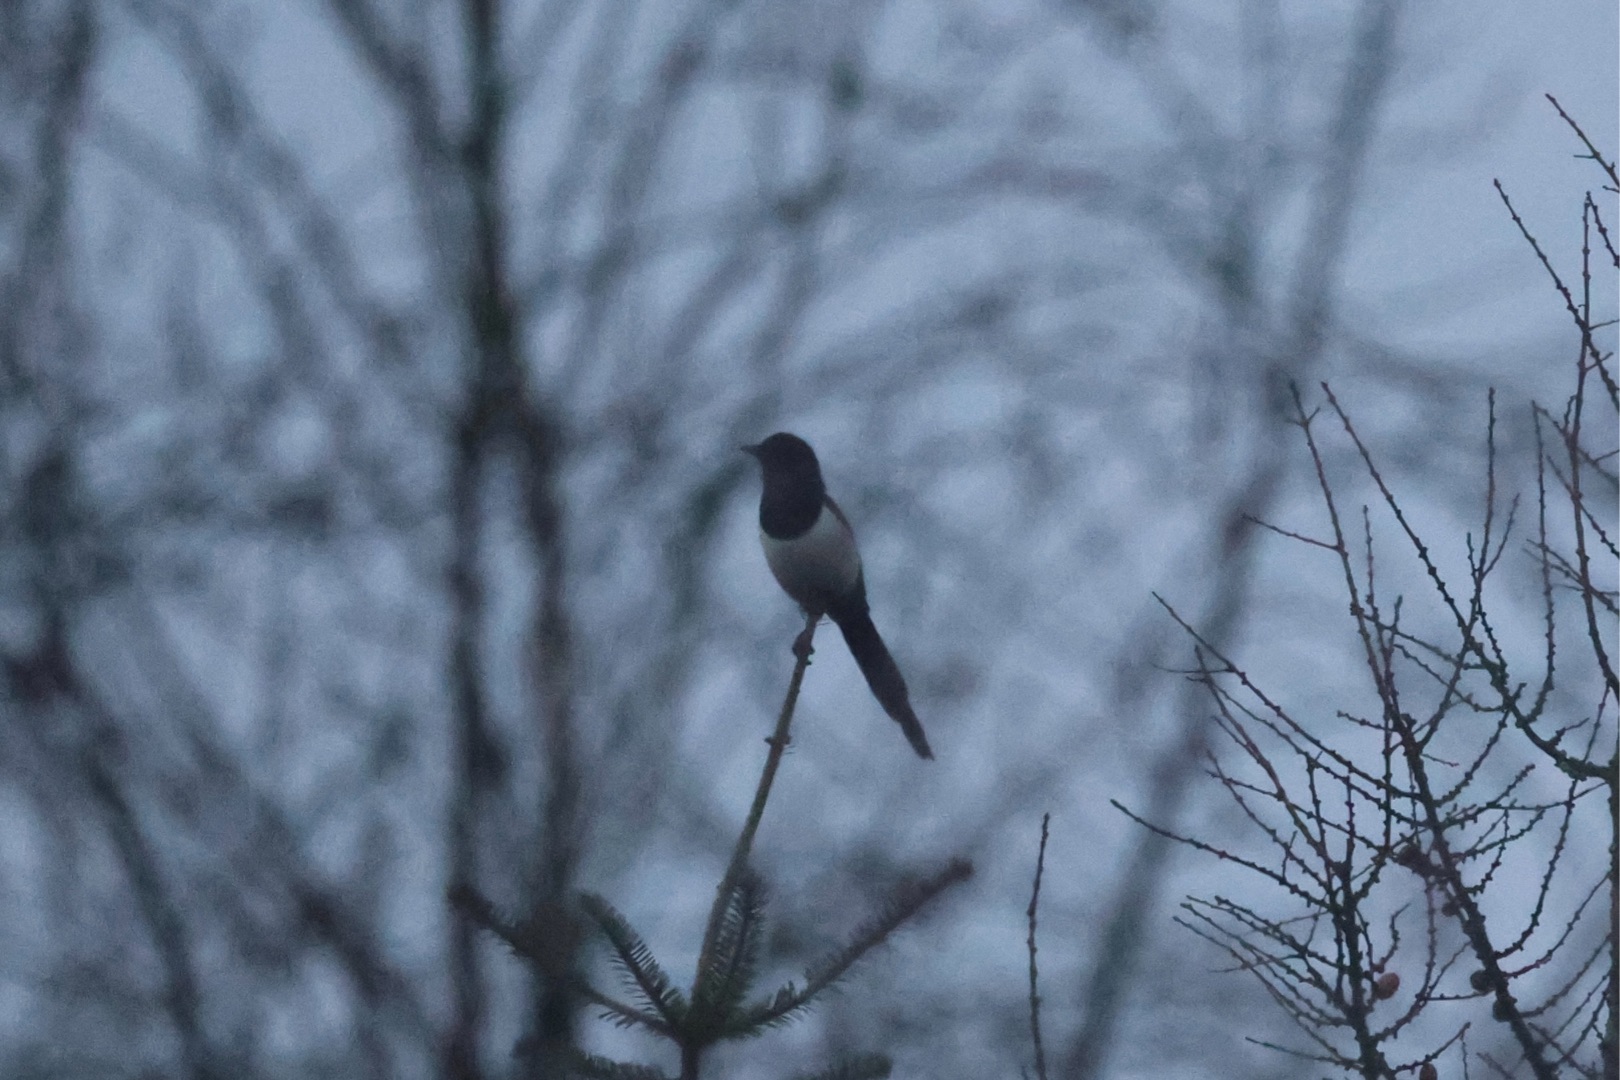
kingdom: Animalia
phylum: Chordata
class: Aves
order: Passeriformes
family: Corvidae
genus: Pica
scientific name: Pica pica
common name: Husskade
